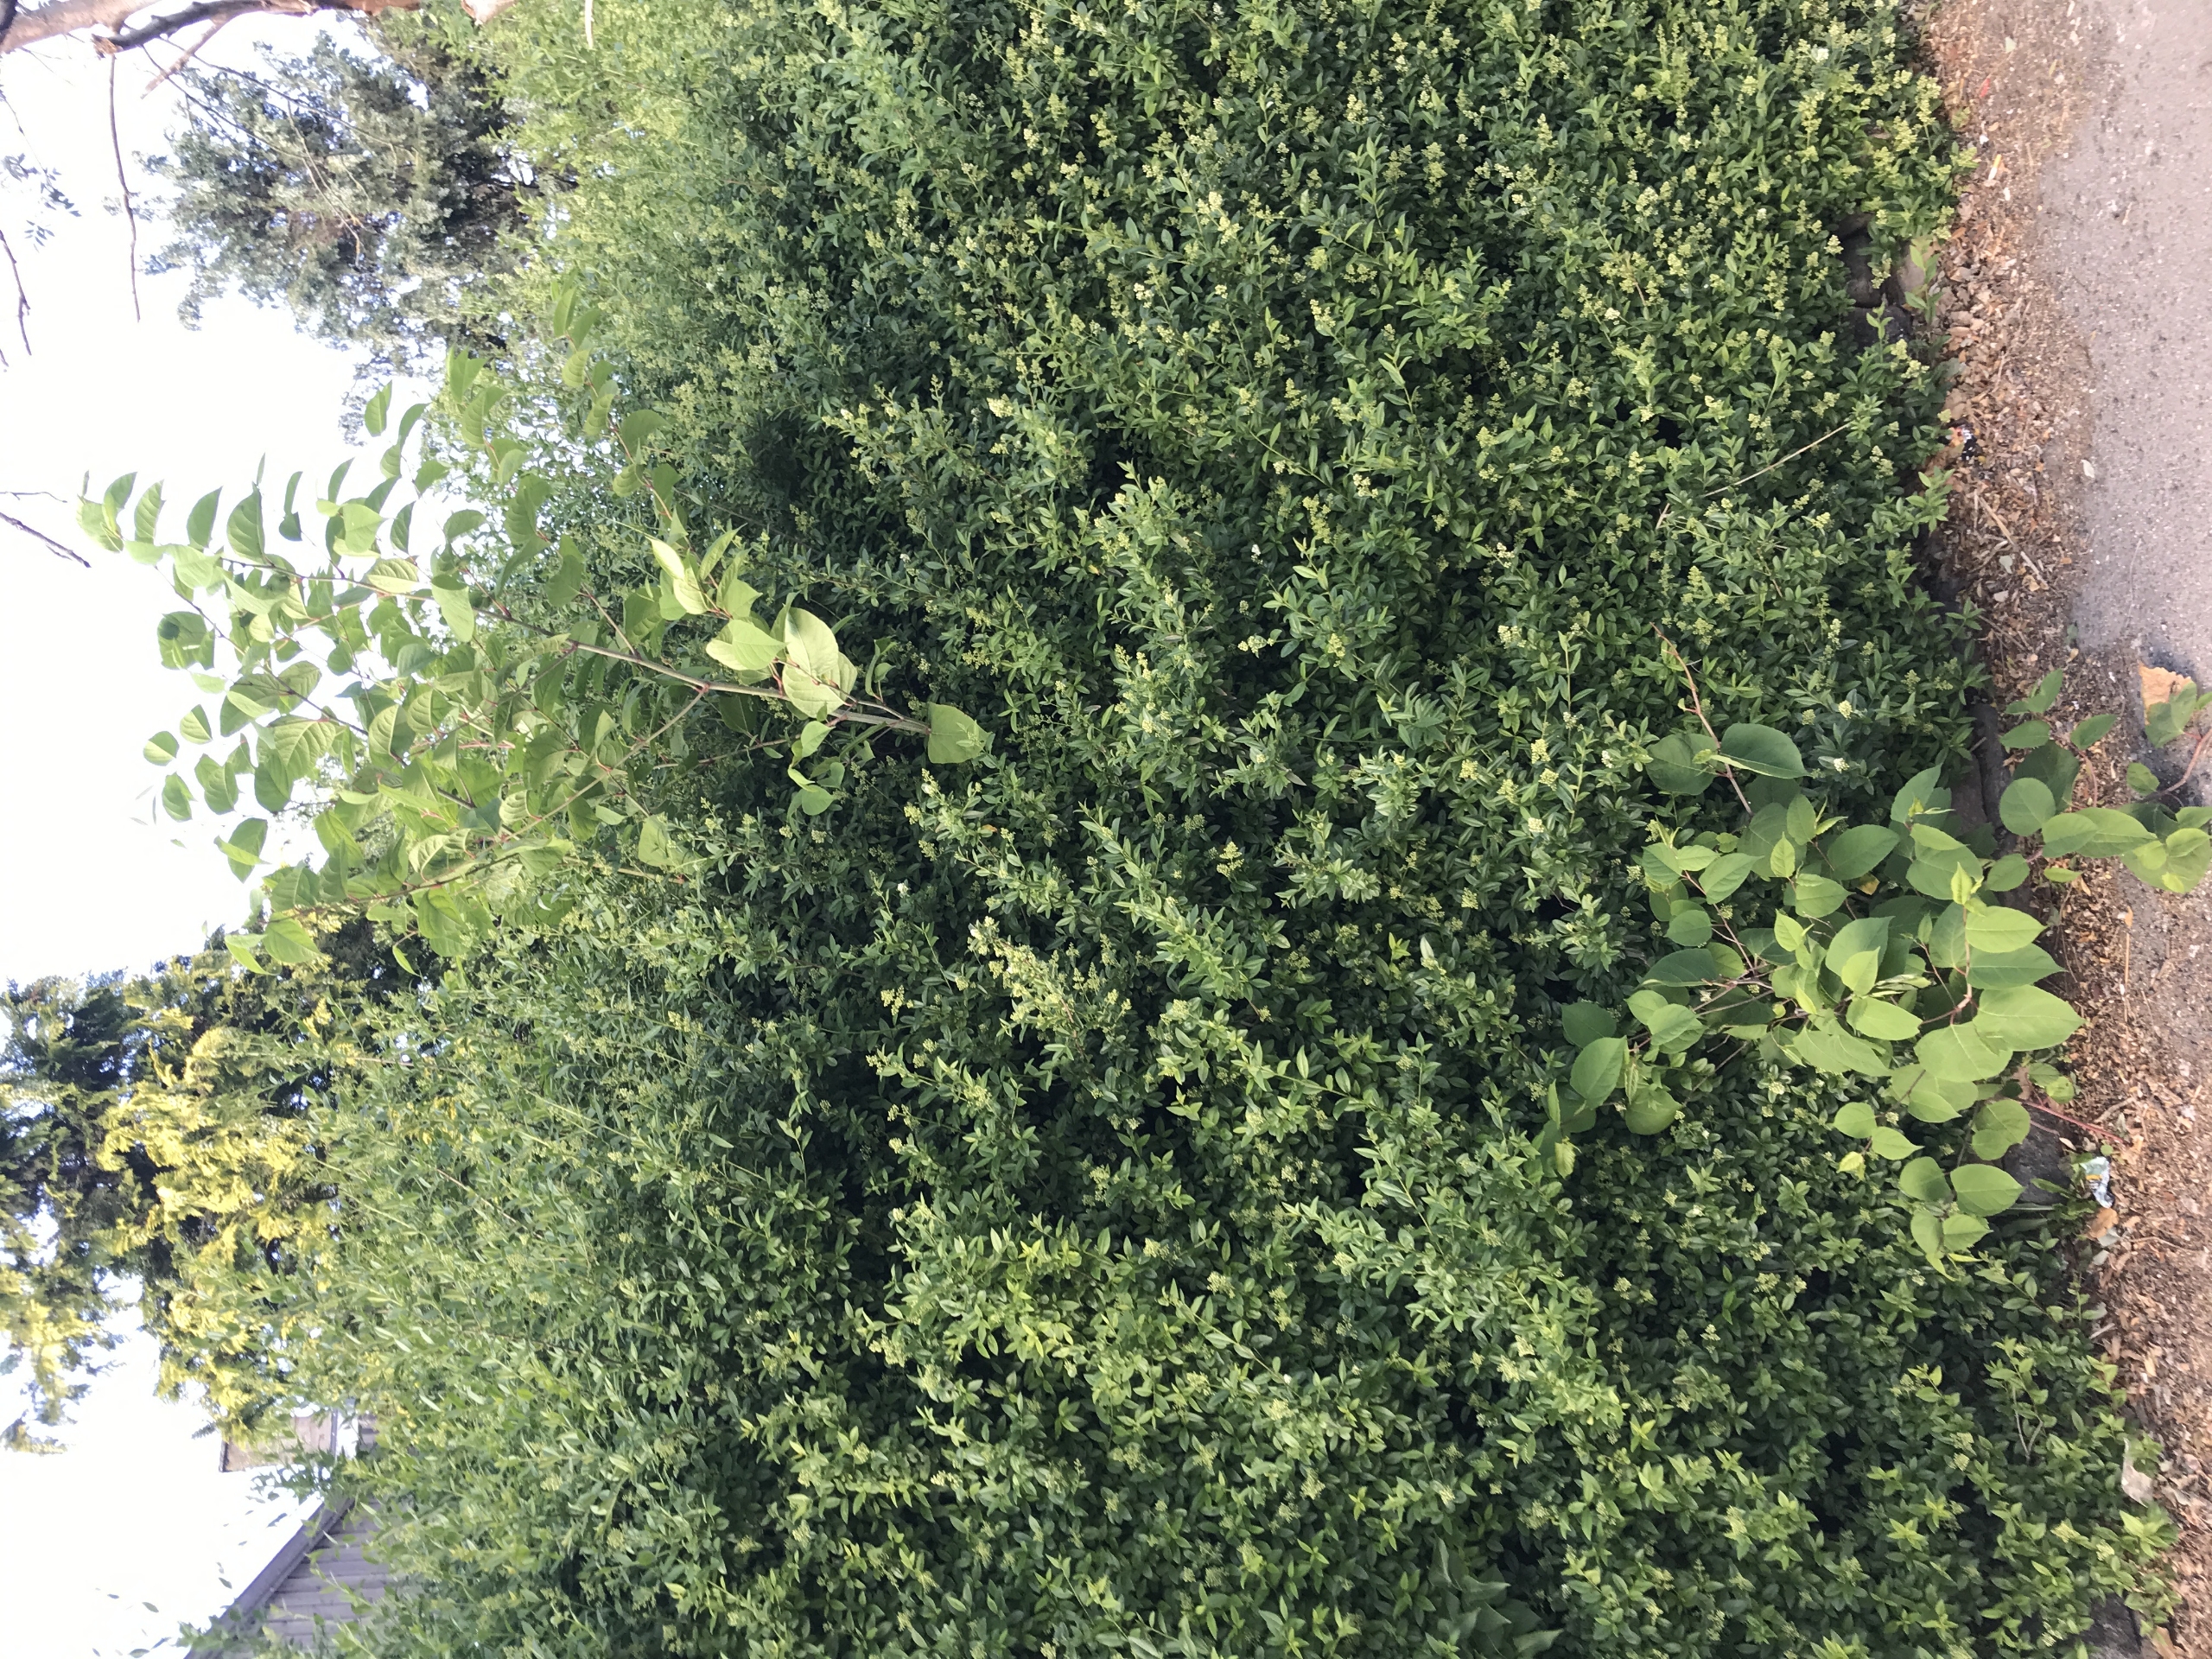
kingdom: Plantae
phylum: Tracheophyta
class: Magnoliopsida
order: Caryophyllales
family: Polygonaceae
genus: Reynoutria
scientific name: Reynoutria japonica
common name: Japan-pileurt
